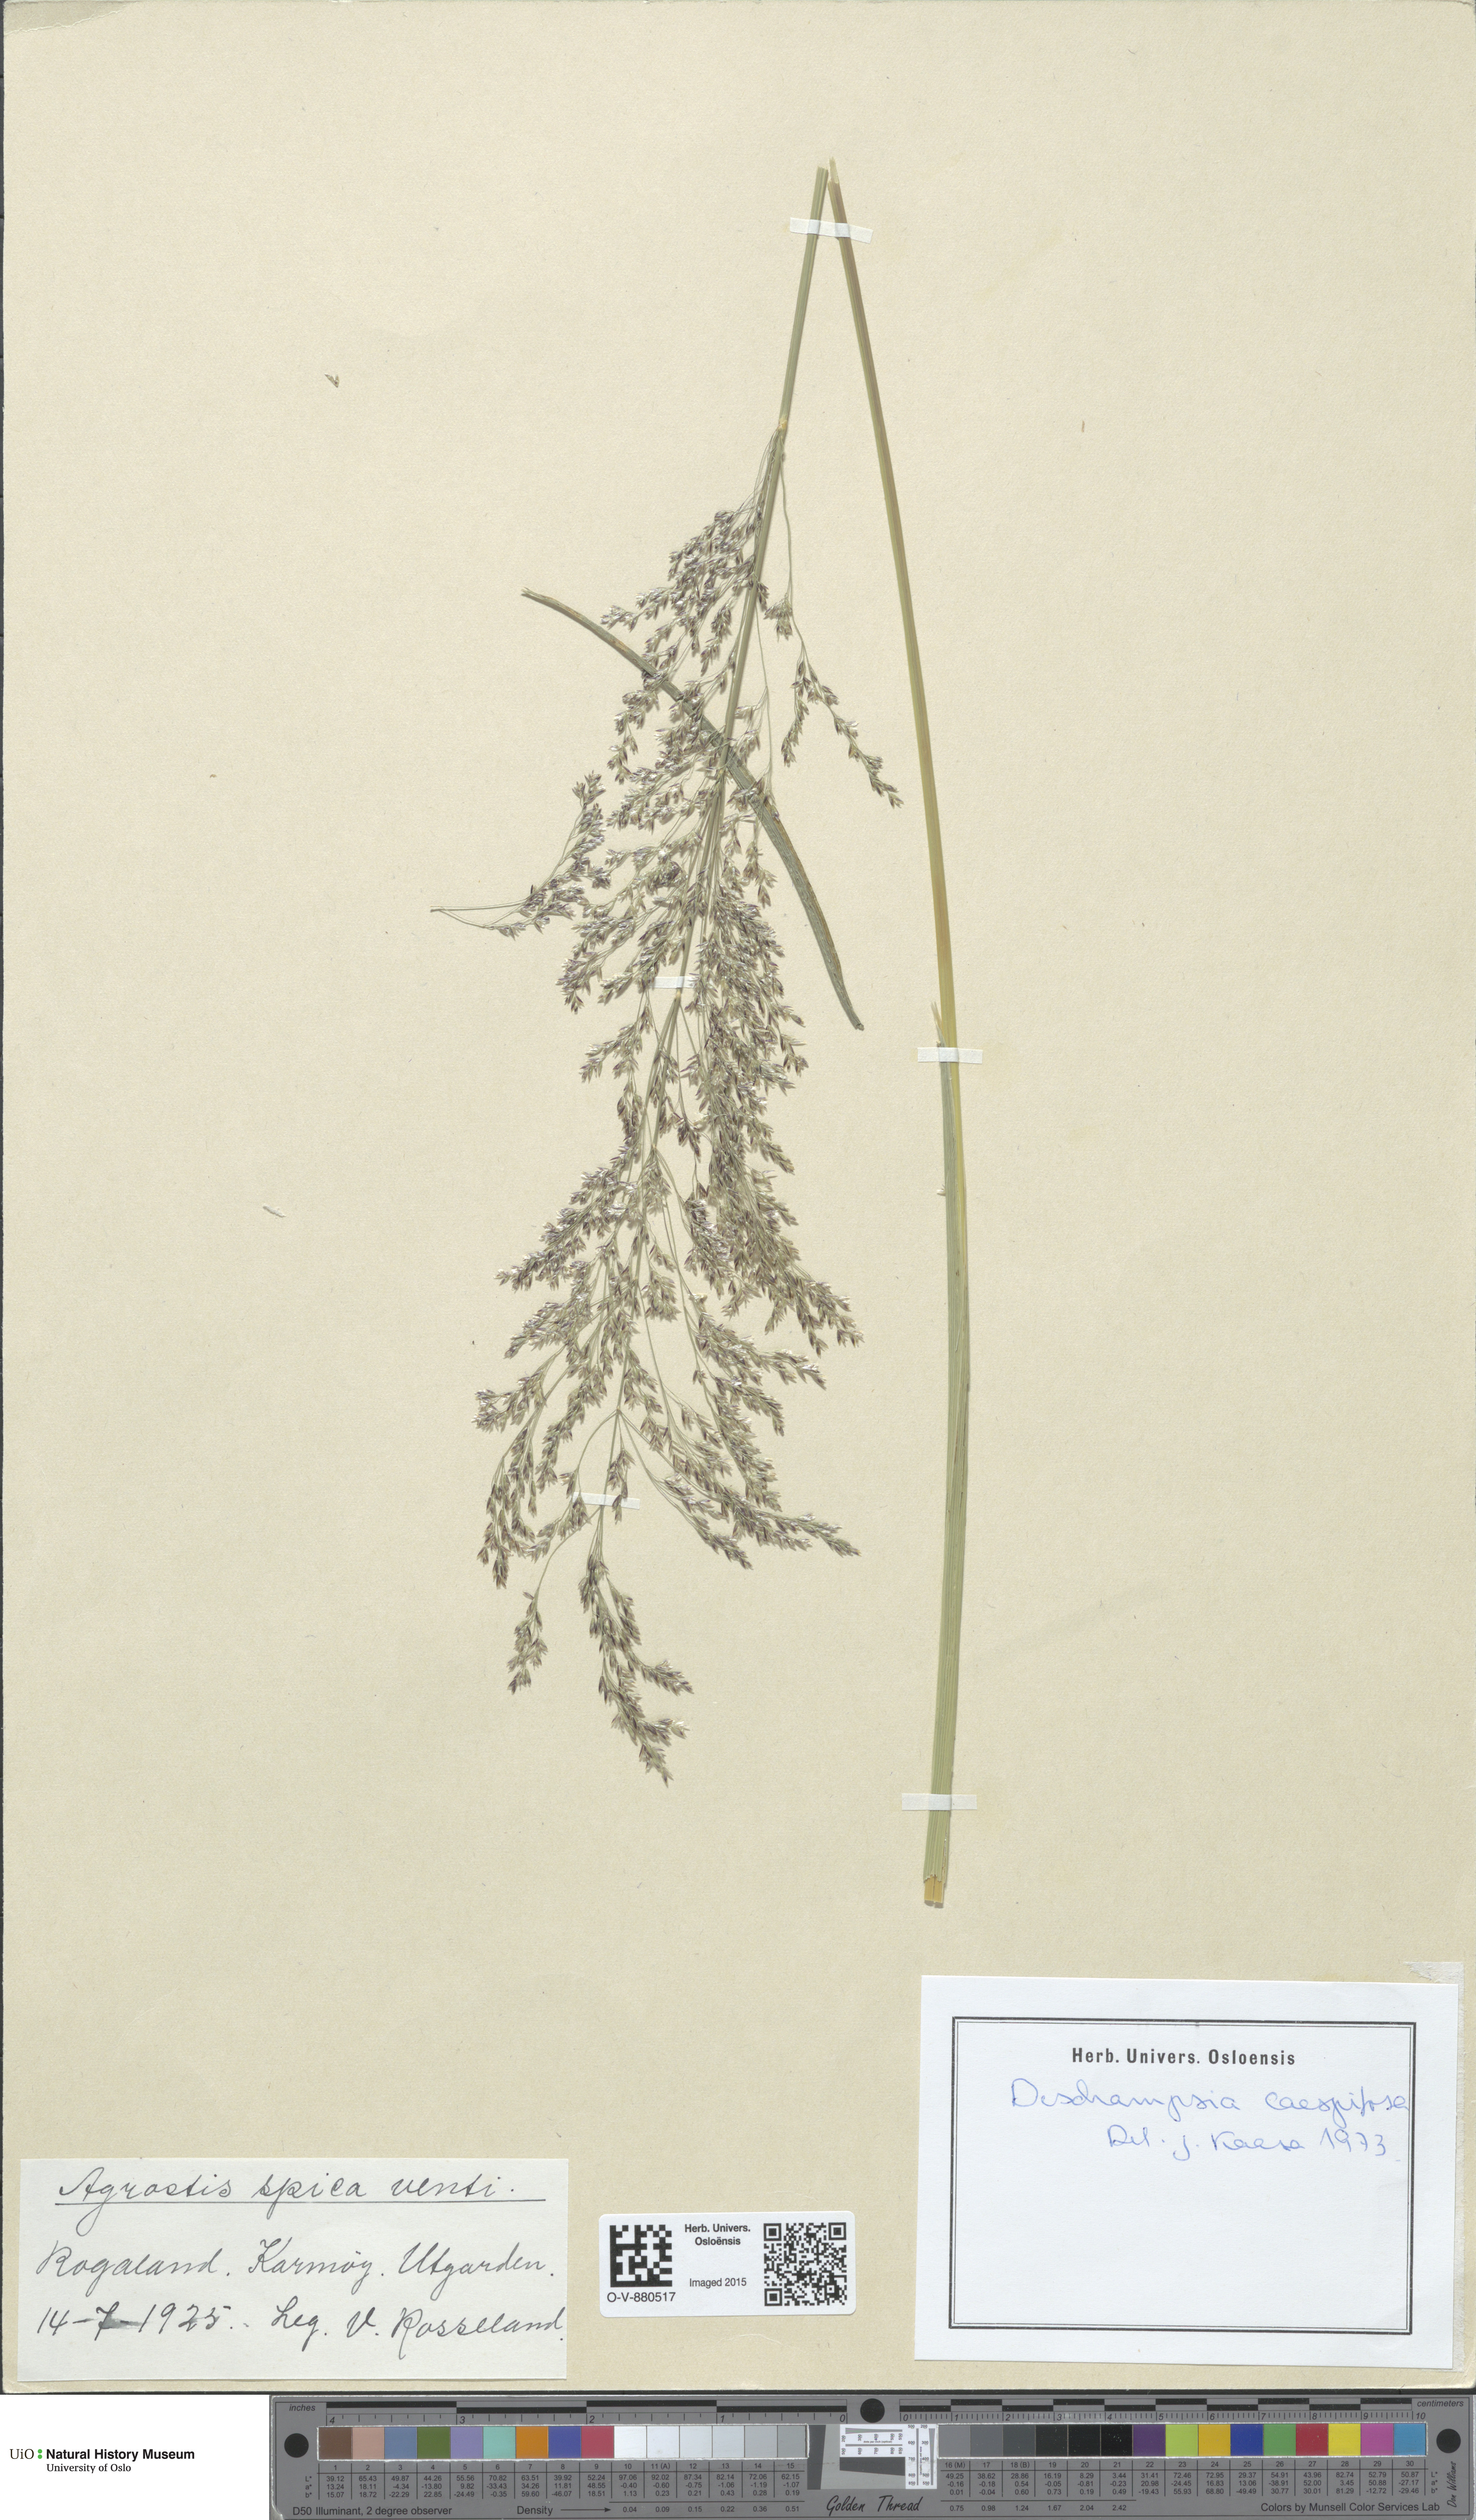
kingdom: Plantae
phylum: Tracheophyta
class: Liliopsida
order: Poales
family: Poaceae
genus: Deschampsia
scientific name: Deschampsia cespitosa
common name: Tufted hair-grass
